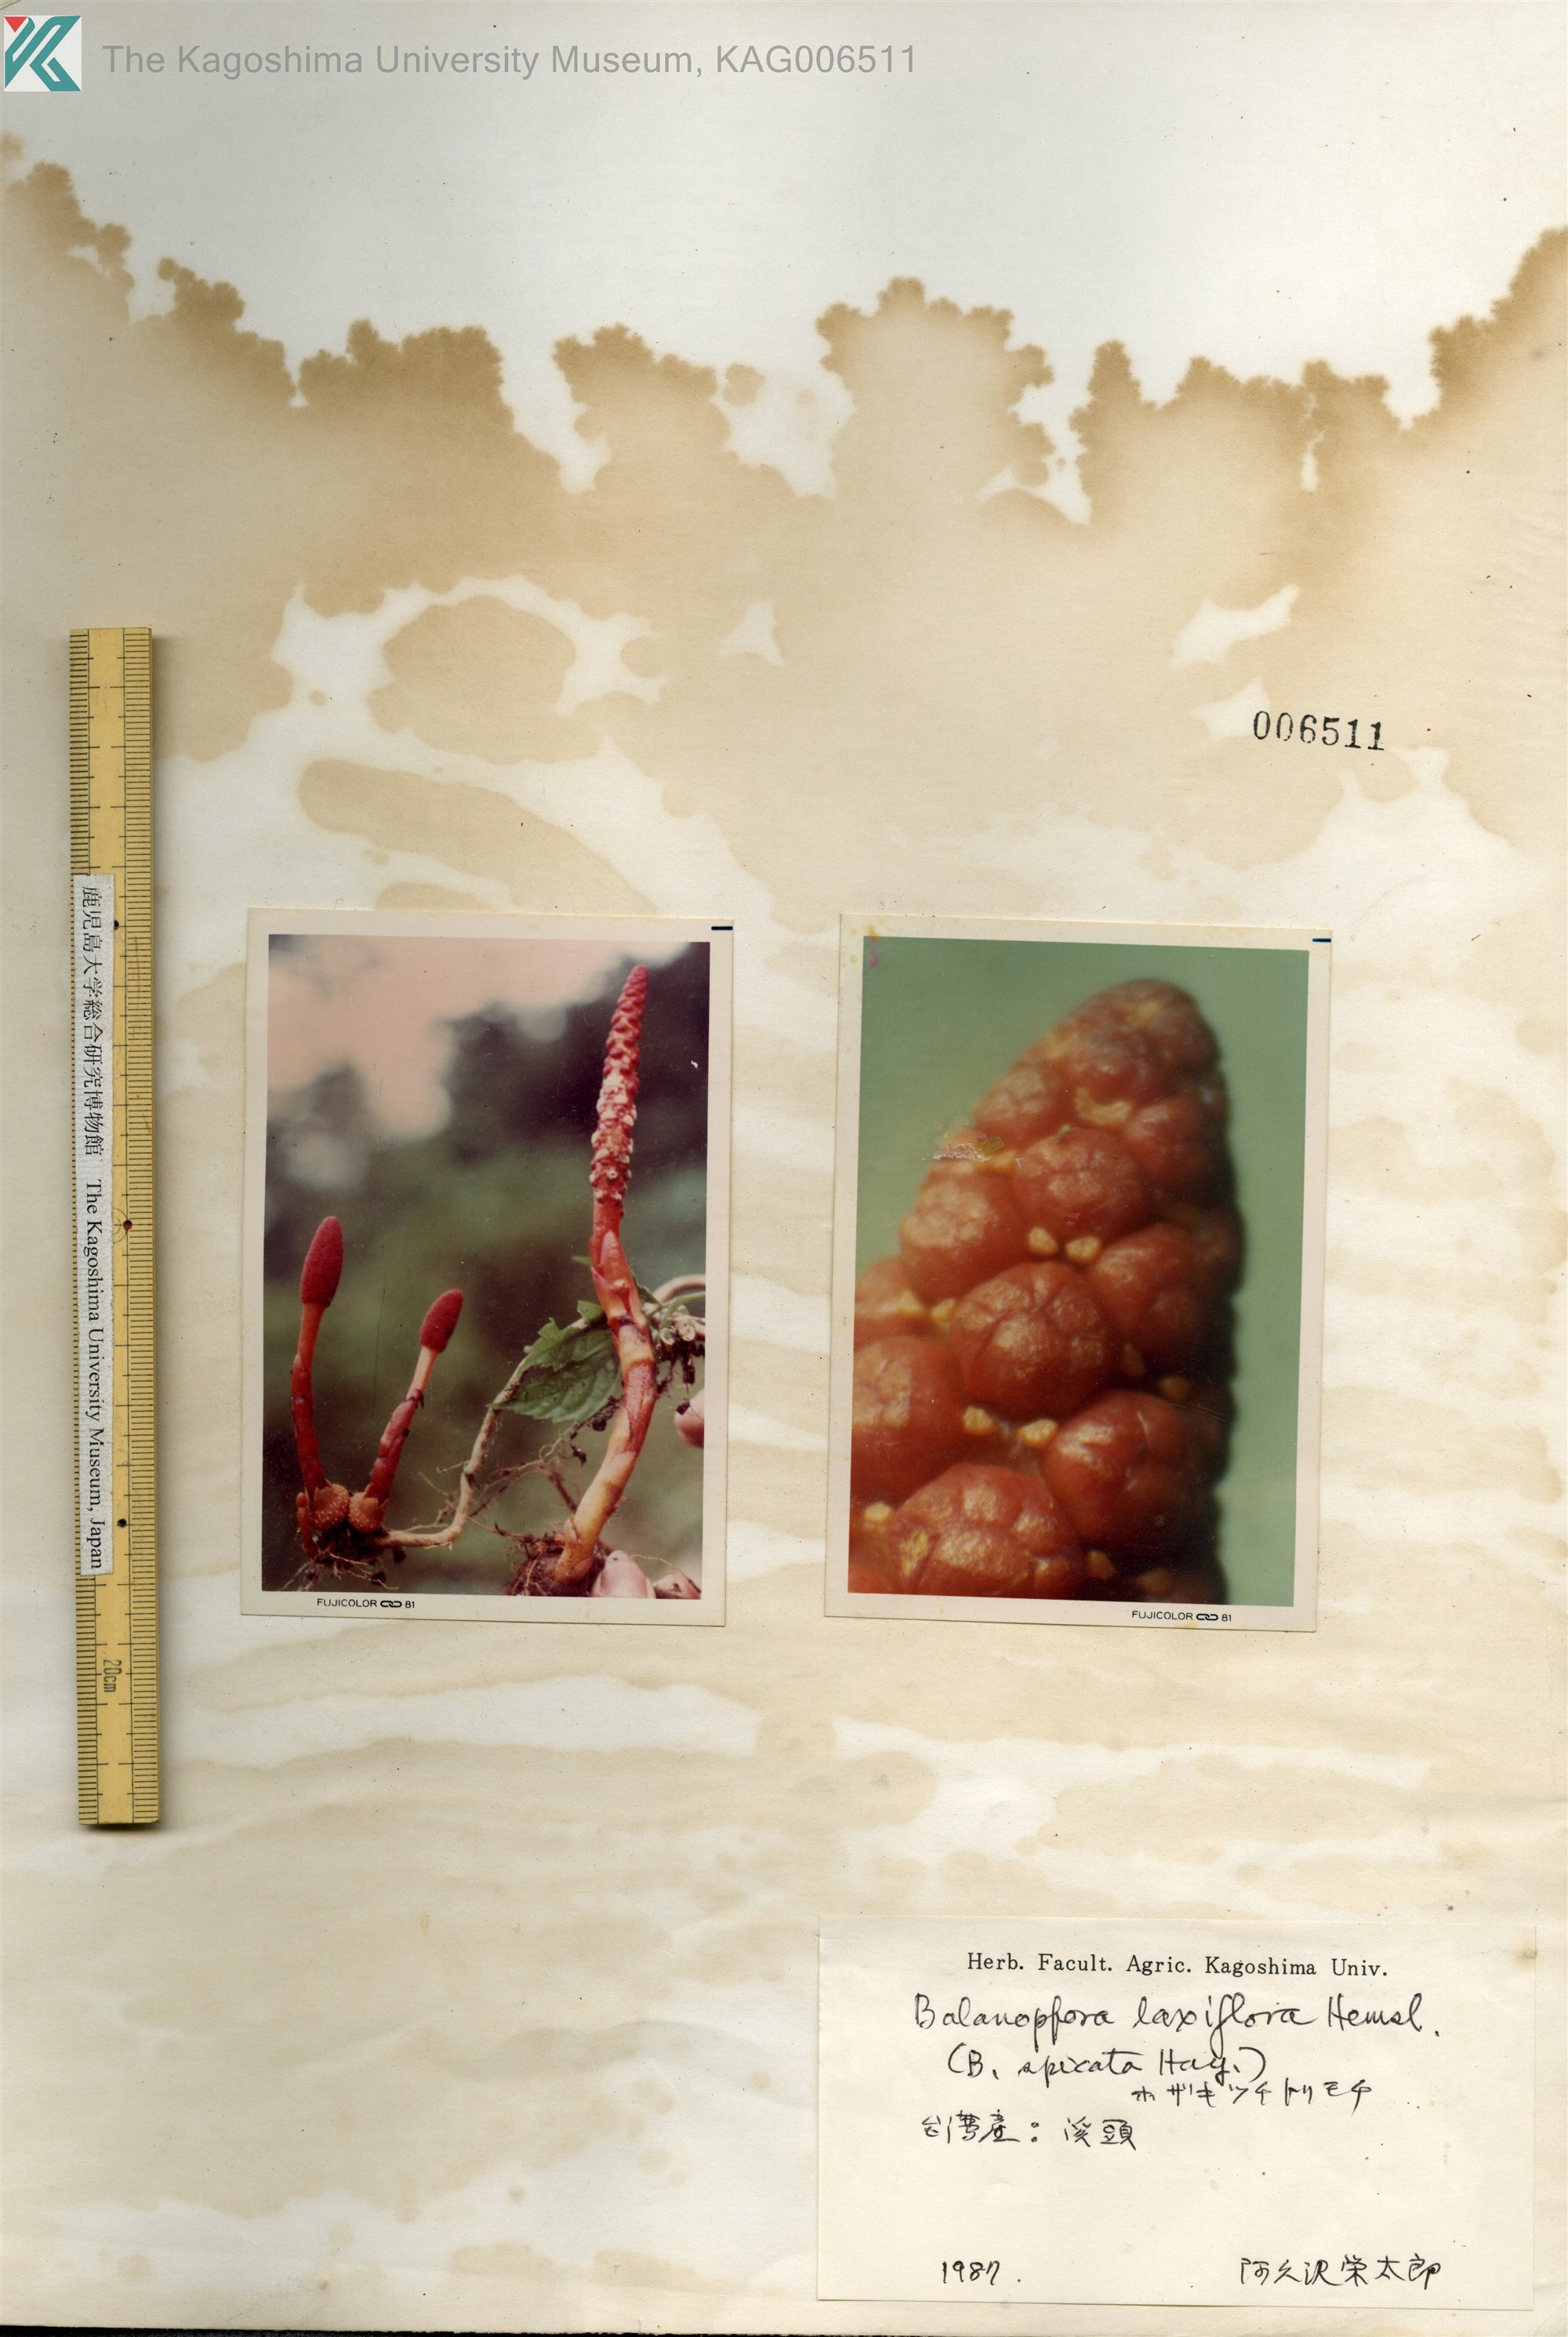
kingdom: Plantae
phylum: Tracheophyta
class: Magnoliopsida
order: Santalales
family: Balanophoraceae
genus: Balanophora
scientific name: Balanophora laxiflora
